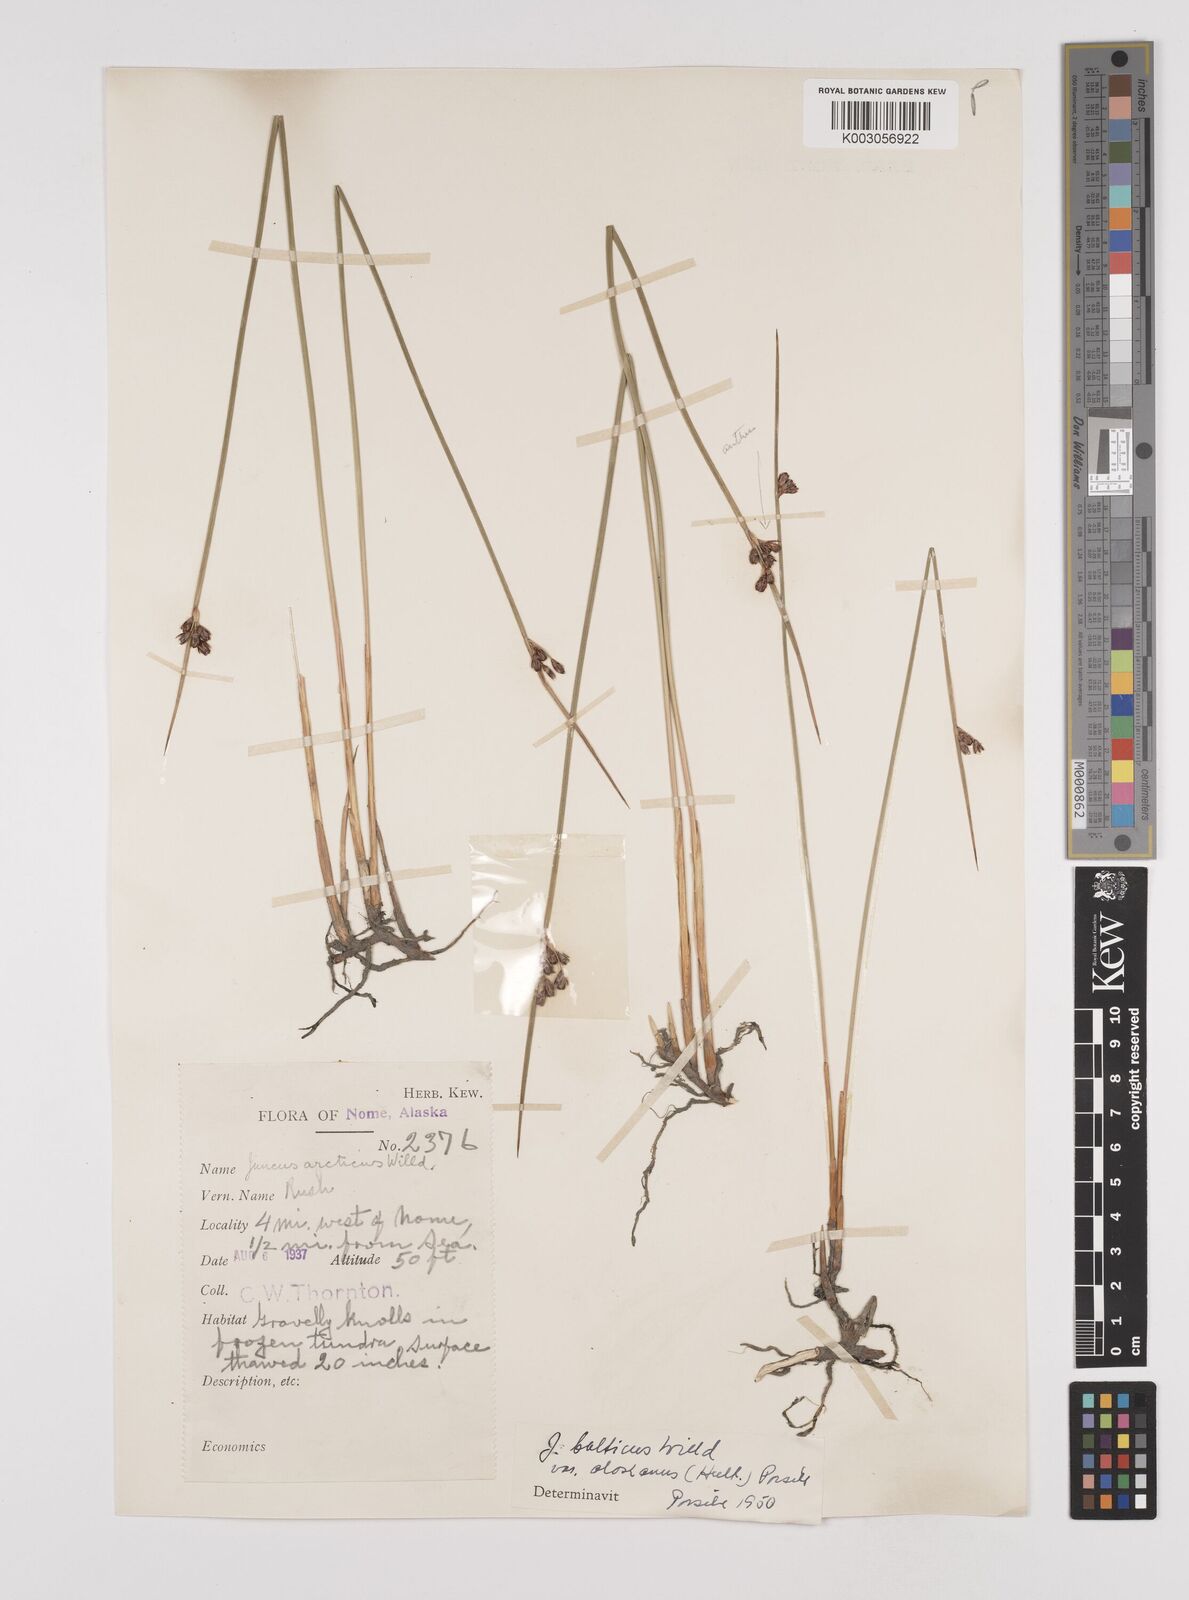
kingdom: Plantae
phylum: Tracheophyta
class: Liliopsida
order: Poales
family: Juncaceae
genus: Juncus
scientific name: Juncus arcticus
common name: Arctic rush
